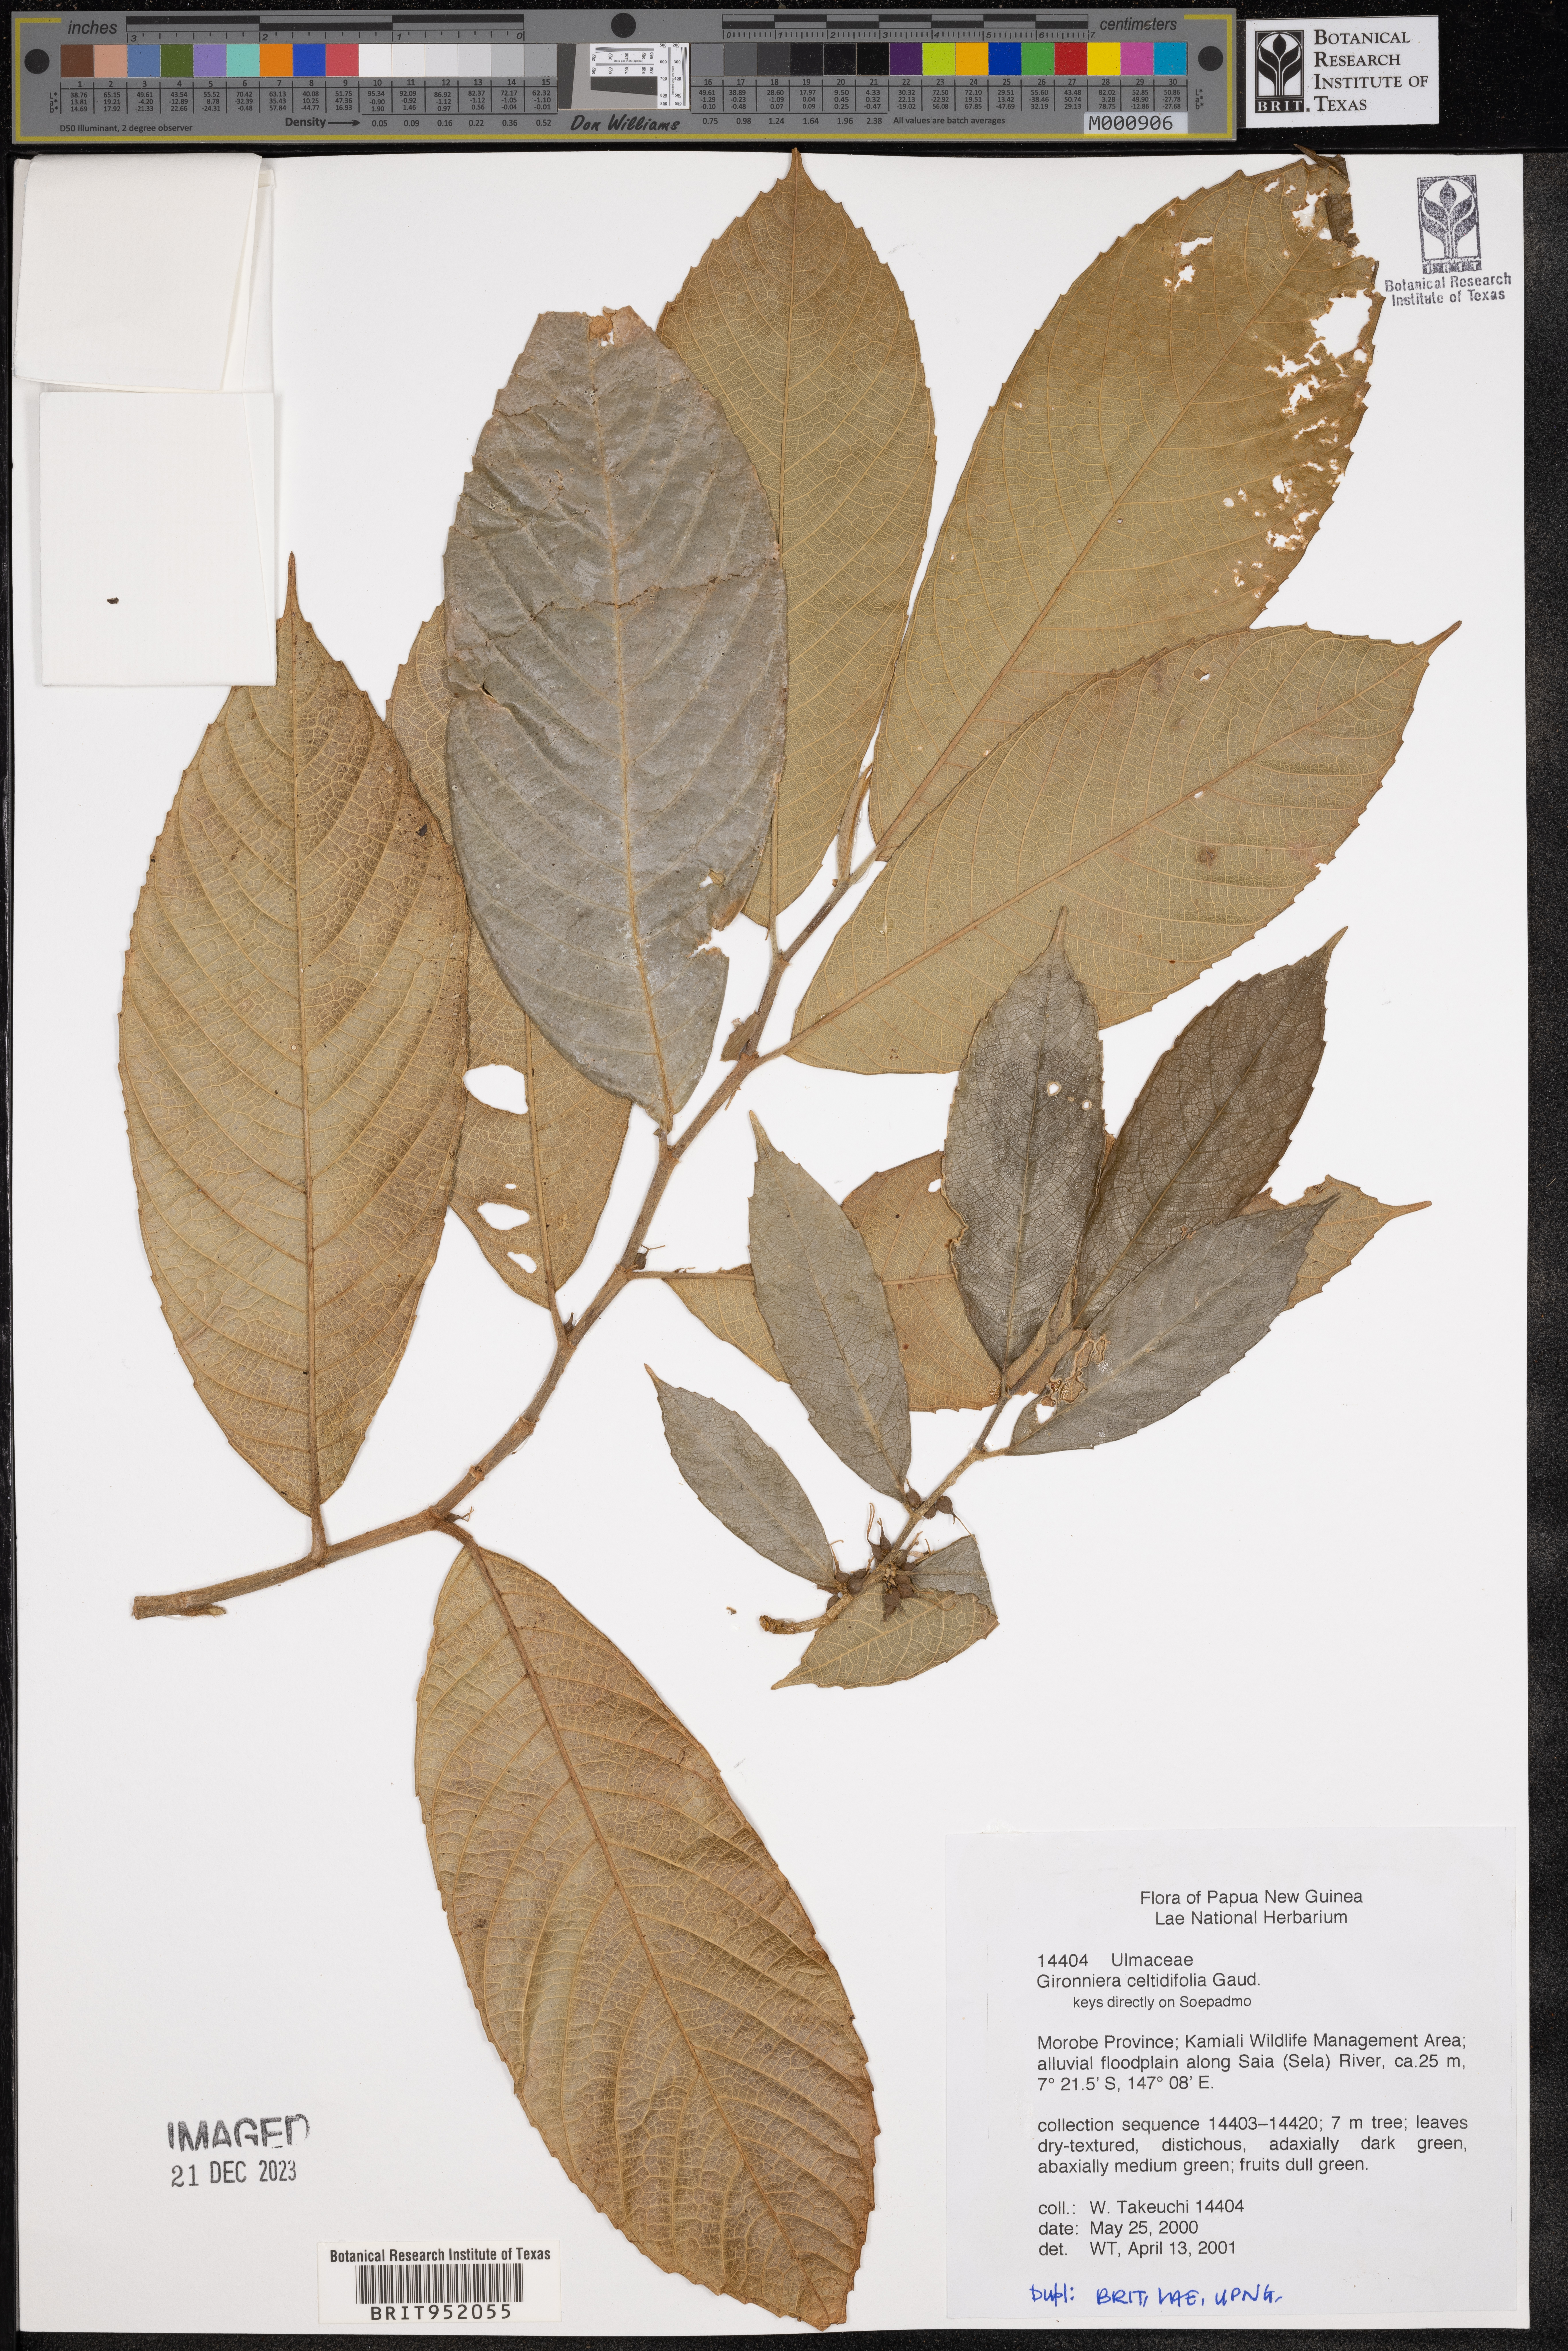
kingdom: Plantae
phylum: Tracheophyta
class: Magnoliopsida
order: Rosales
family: Cannabaceae
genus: Gironniera
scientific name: Gironniera
